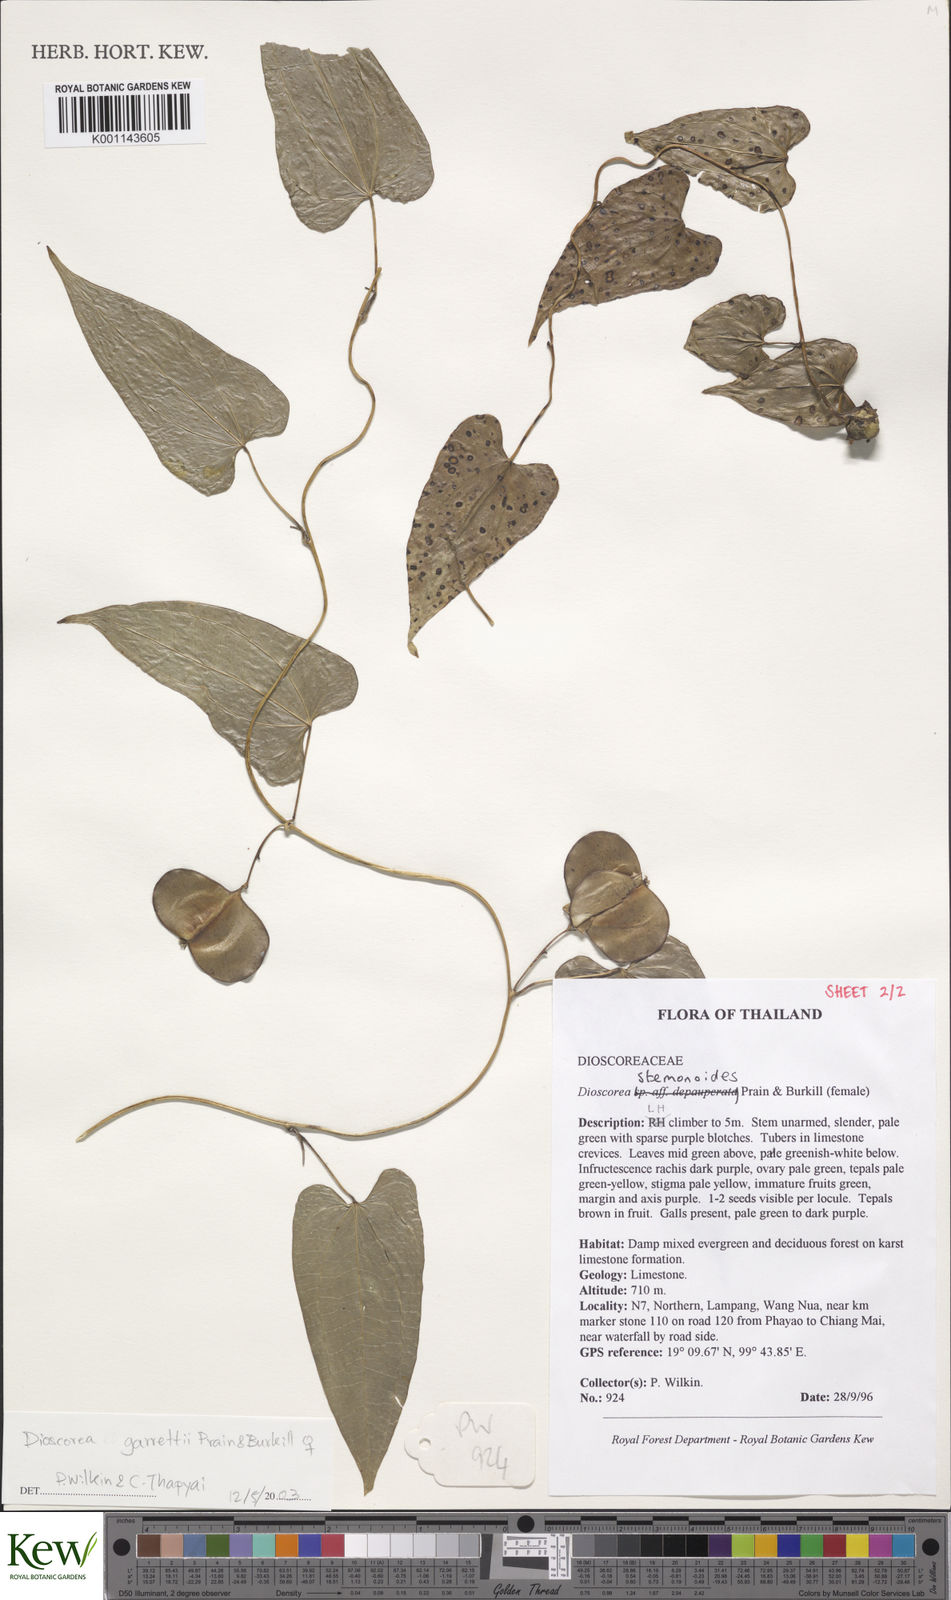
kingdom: Plantae
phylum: Tracheophyta
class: Liliopsida
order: Dioscoreales
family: Dioscoreaceae
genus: Dioscorea
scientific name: Dioscorea garrettii
